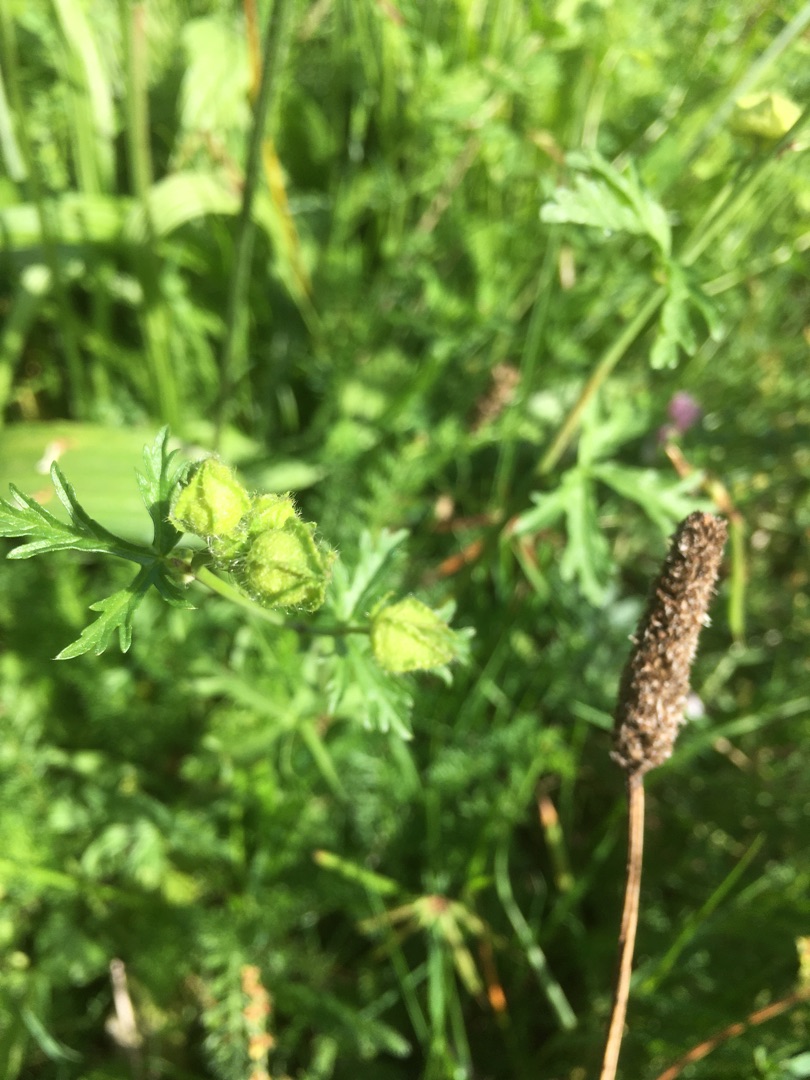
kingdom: Plantae
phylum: Tracheophyta
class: Magnoliopsida
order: Malvales
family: Malvaceae
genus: Malva
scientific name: Malva moschata
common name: Moskus-katost
